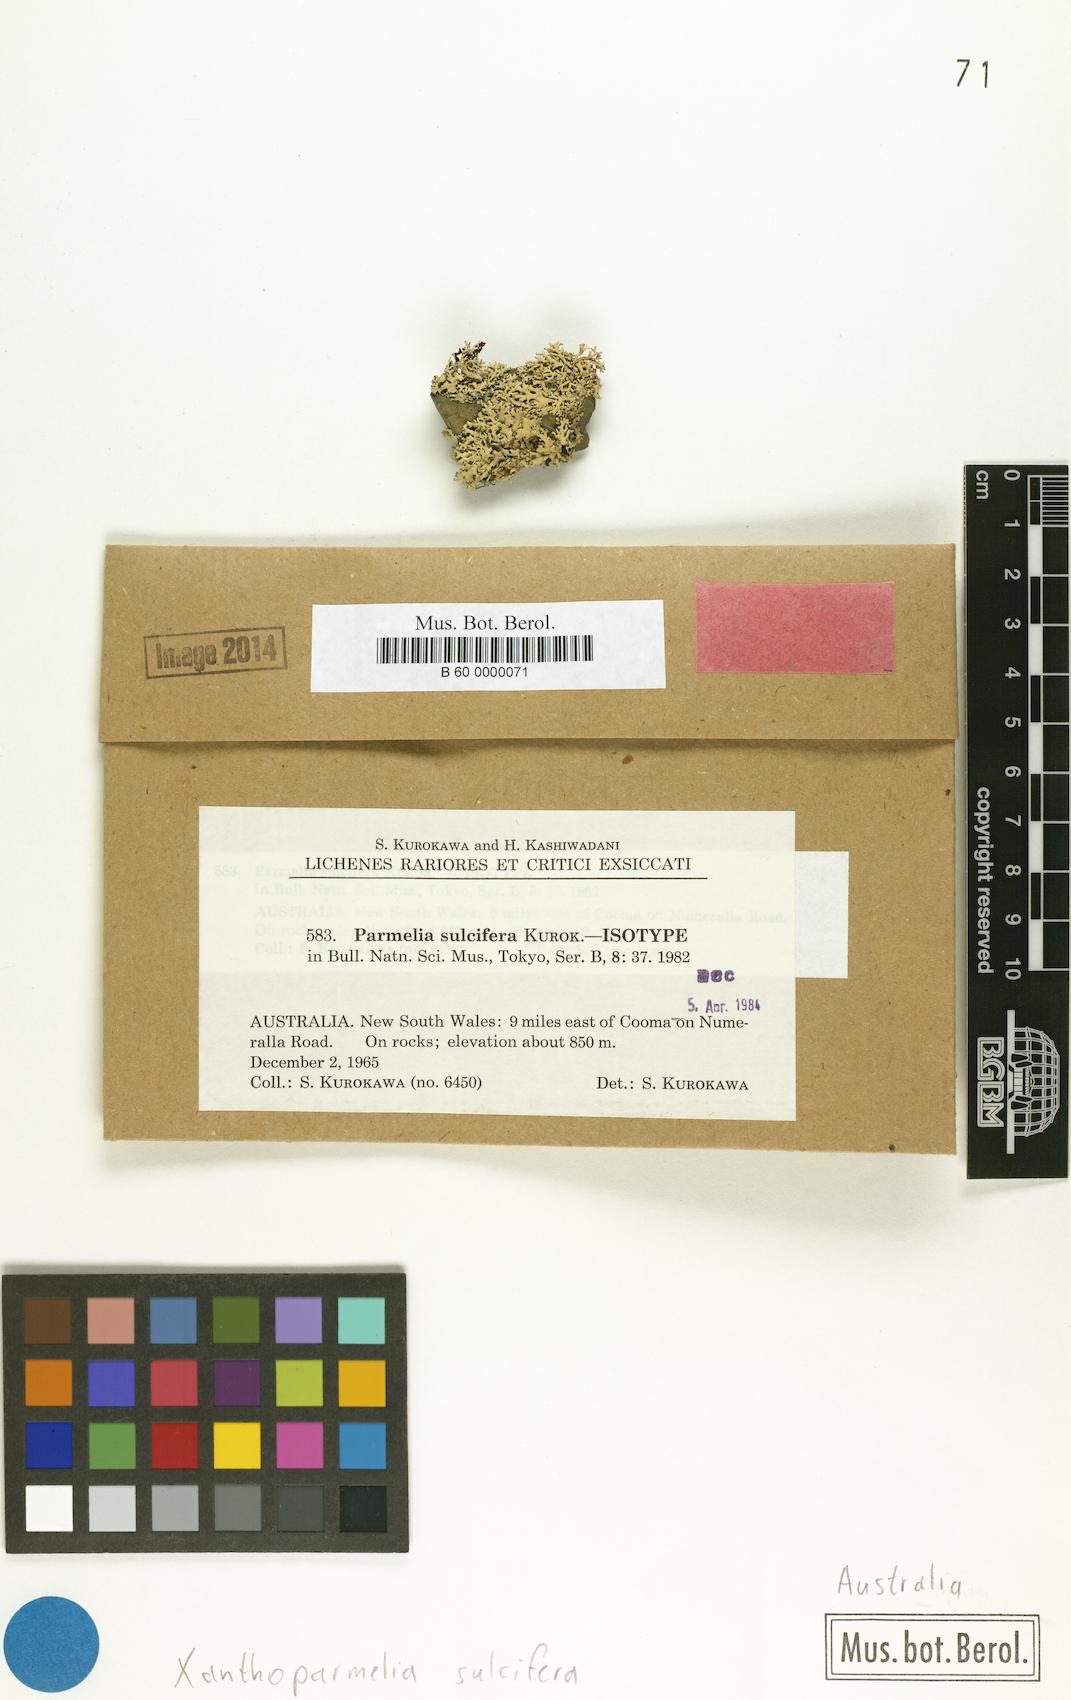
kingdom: Fungi
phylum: Ascomycota
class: Lecanoromycetes
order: Lecanorales
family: Parmeliaceae
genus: Xanthoparmelia
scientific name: Xanthoparmelia sulcifera
